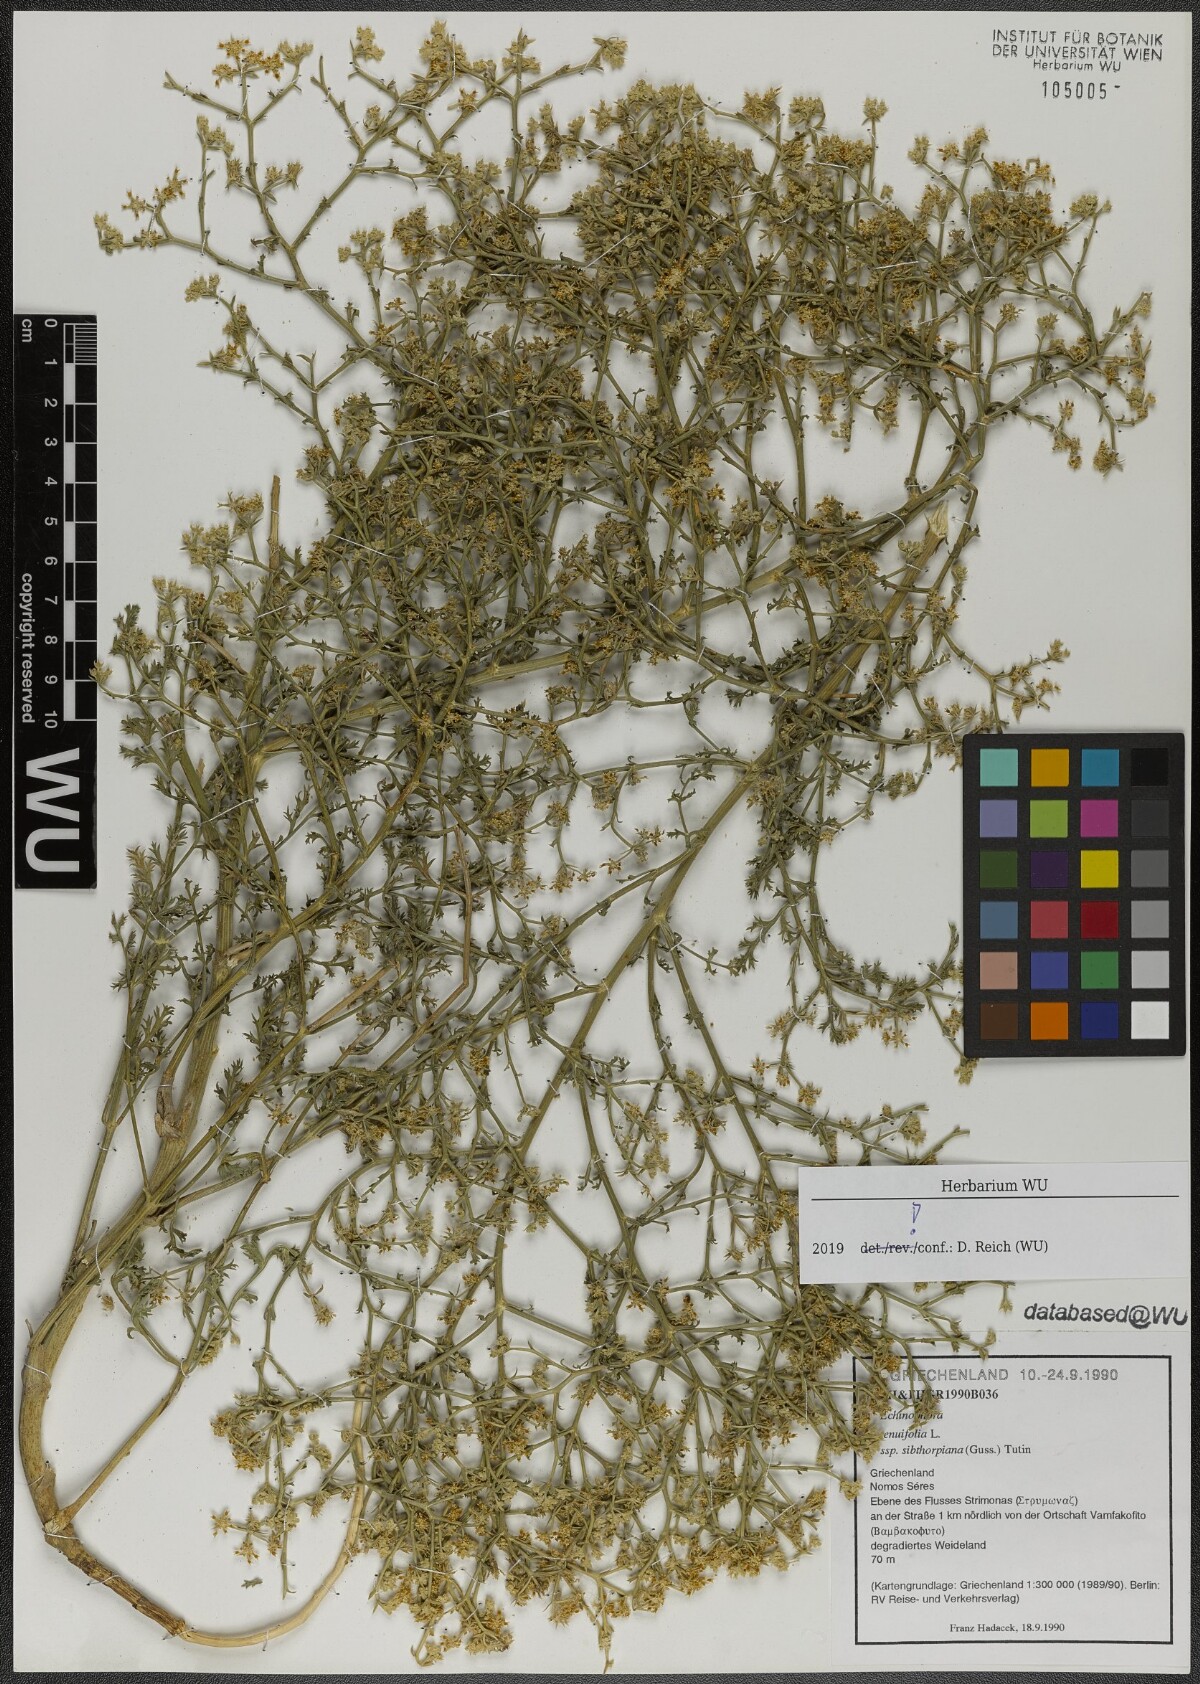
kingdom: Plantae
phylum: Tracheophyta
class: Magnoliopsida
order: Apiales
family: Apiaceae
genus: Echinophora
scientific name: Echinophora sibthorpiana
